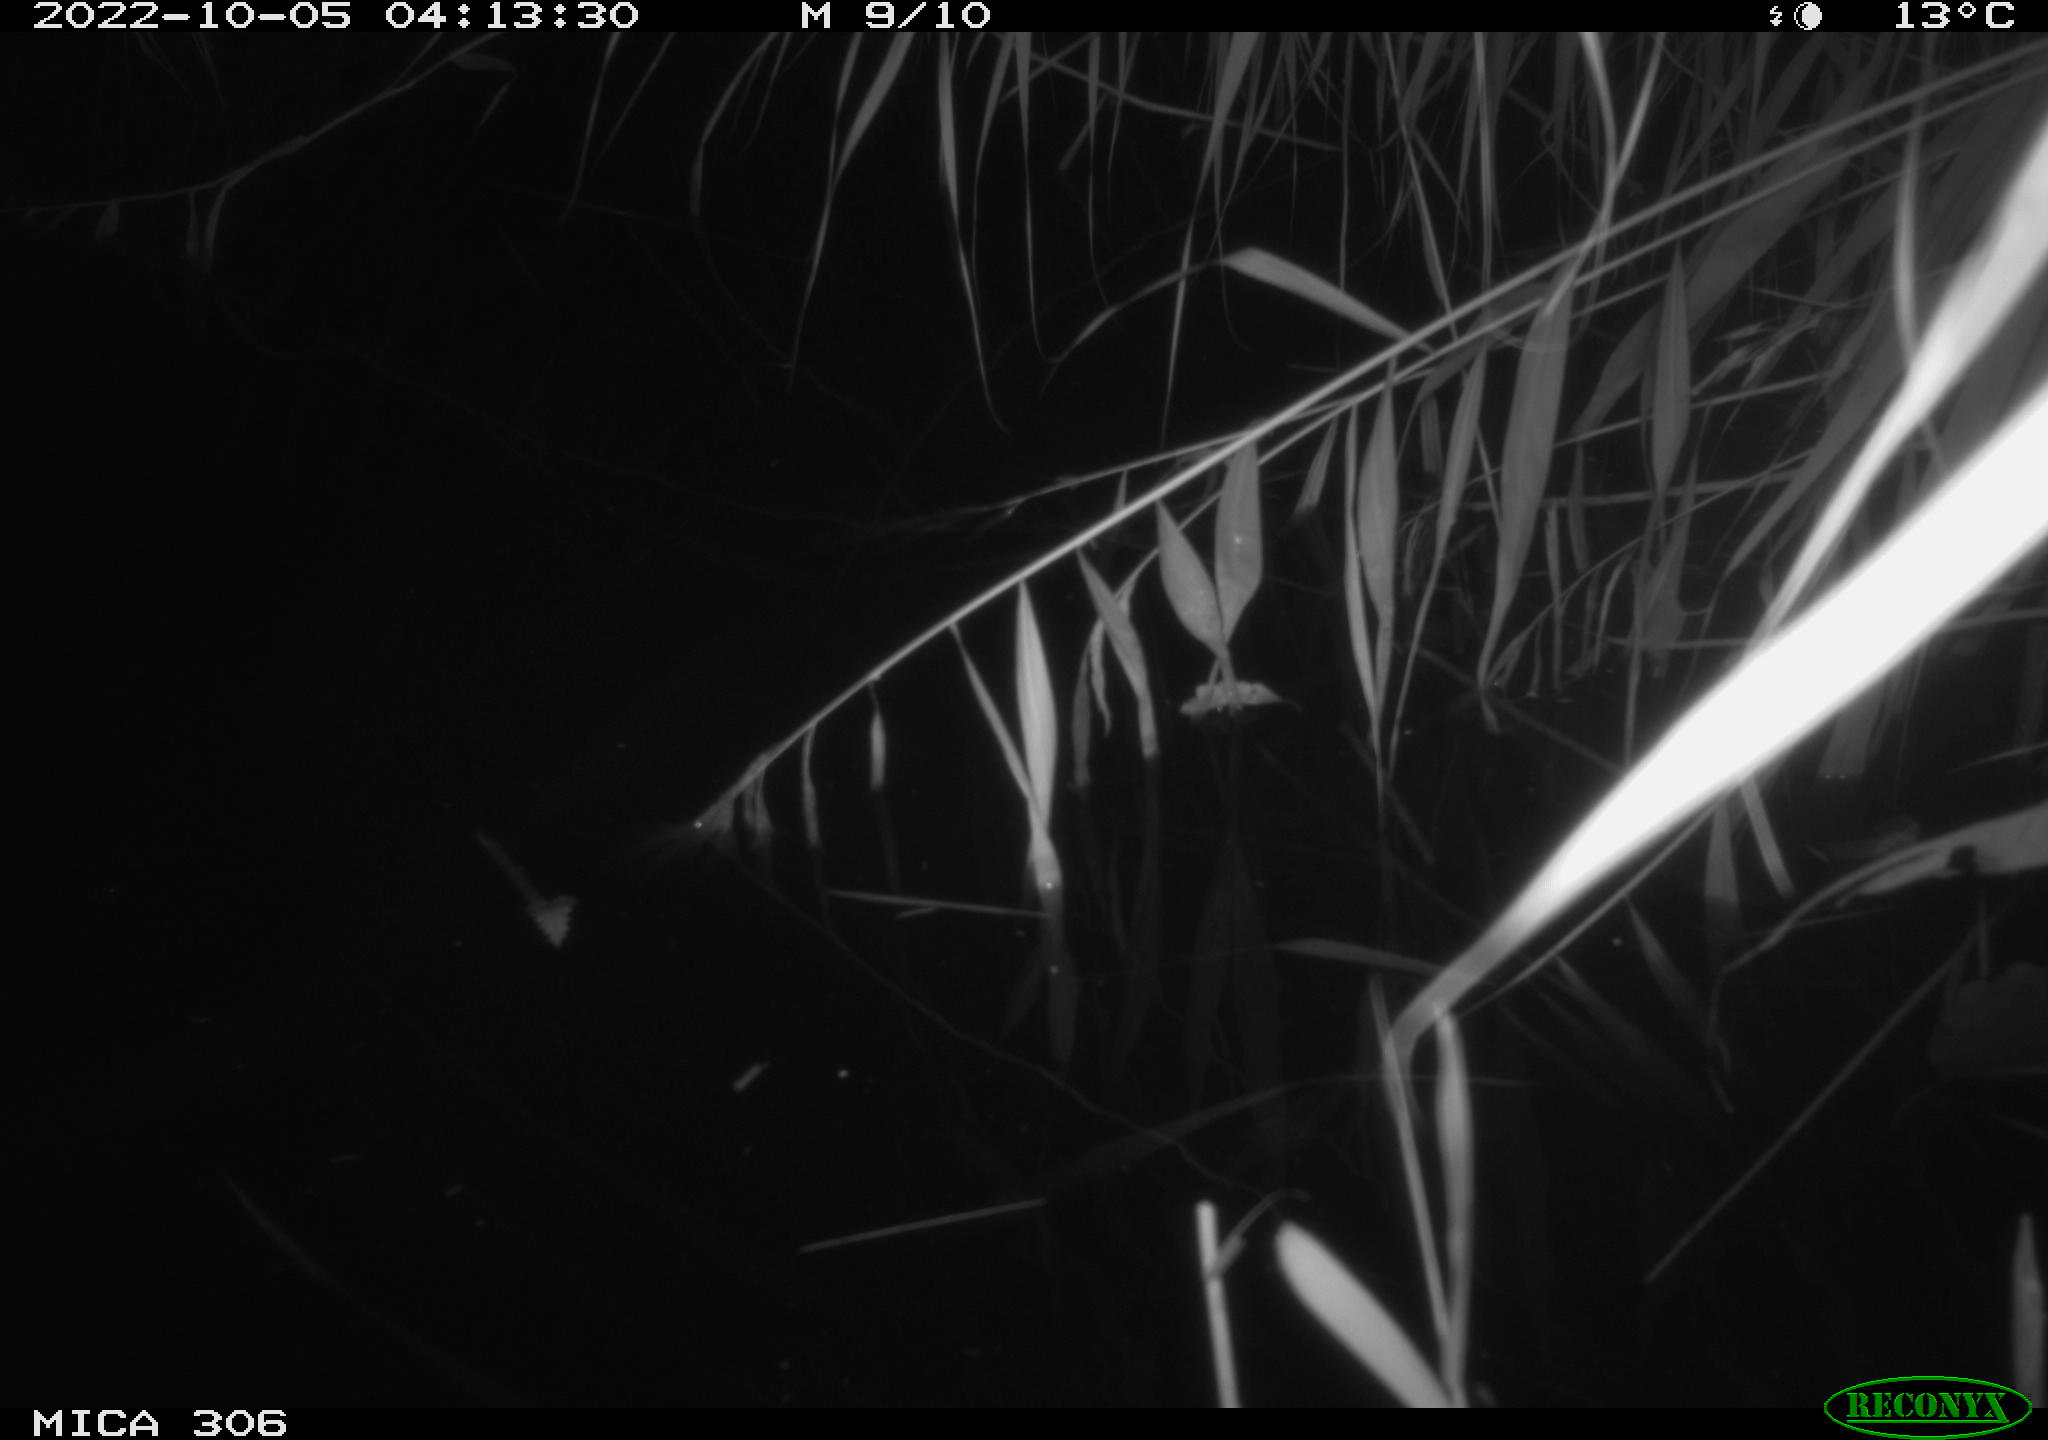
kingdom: Animalia
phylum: Chordata
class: Mammalia
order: Rodentia
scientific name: Rodentia
